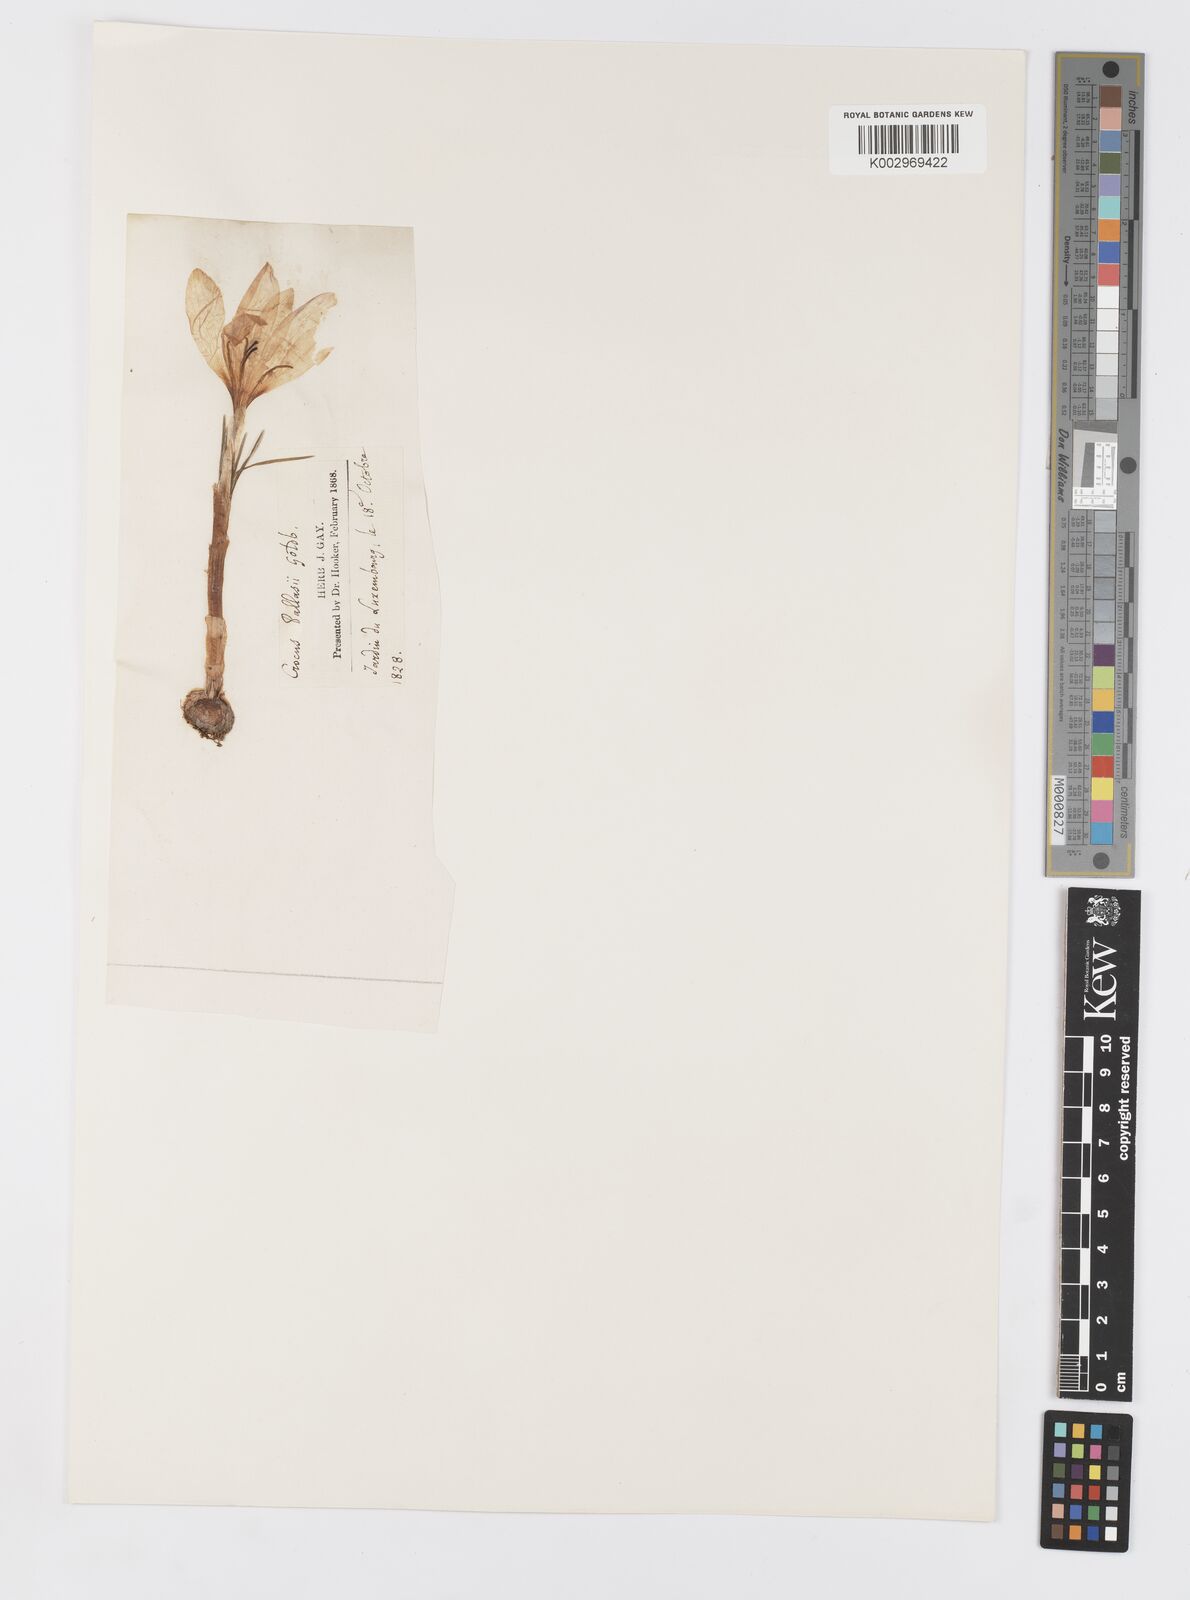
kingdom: Plantae
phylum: Tracheophyta
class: Liliopsida
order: Asparagales
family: Iridaceae
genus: Crocus
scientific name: Crocus sativus
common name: Saffron crocus
